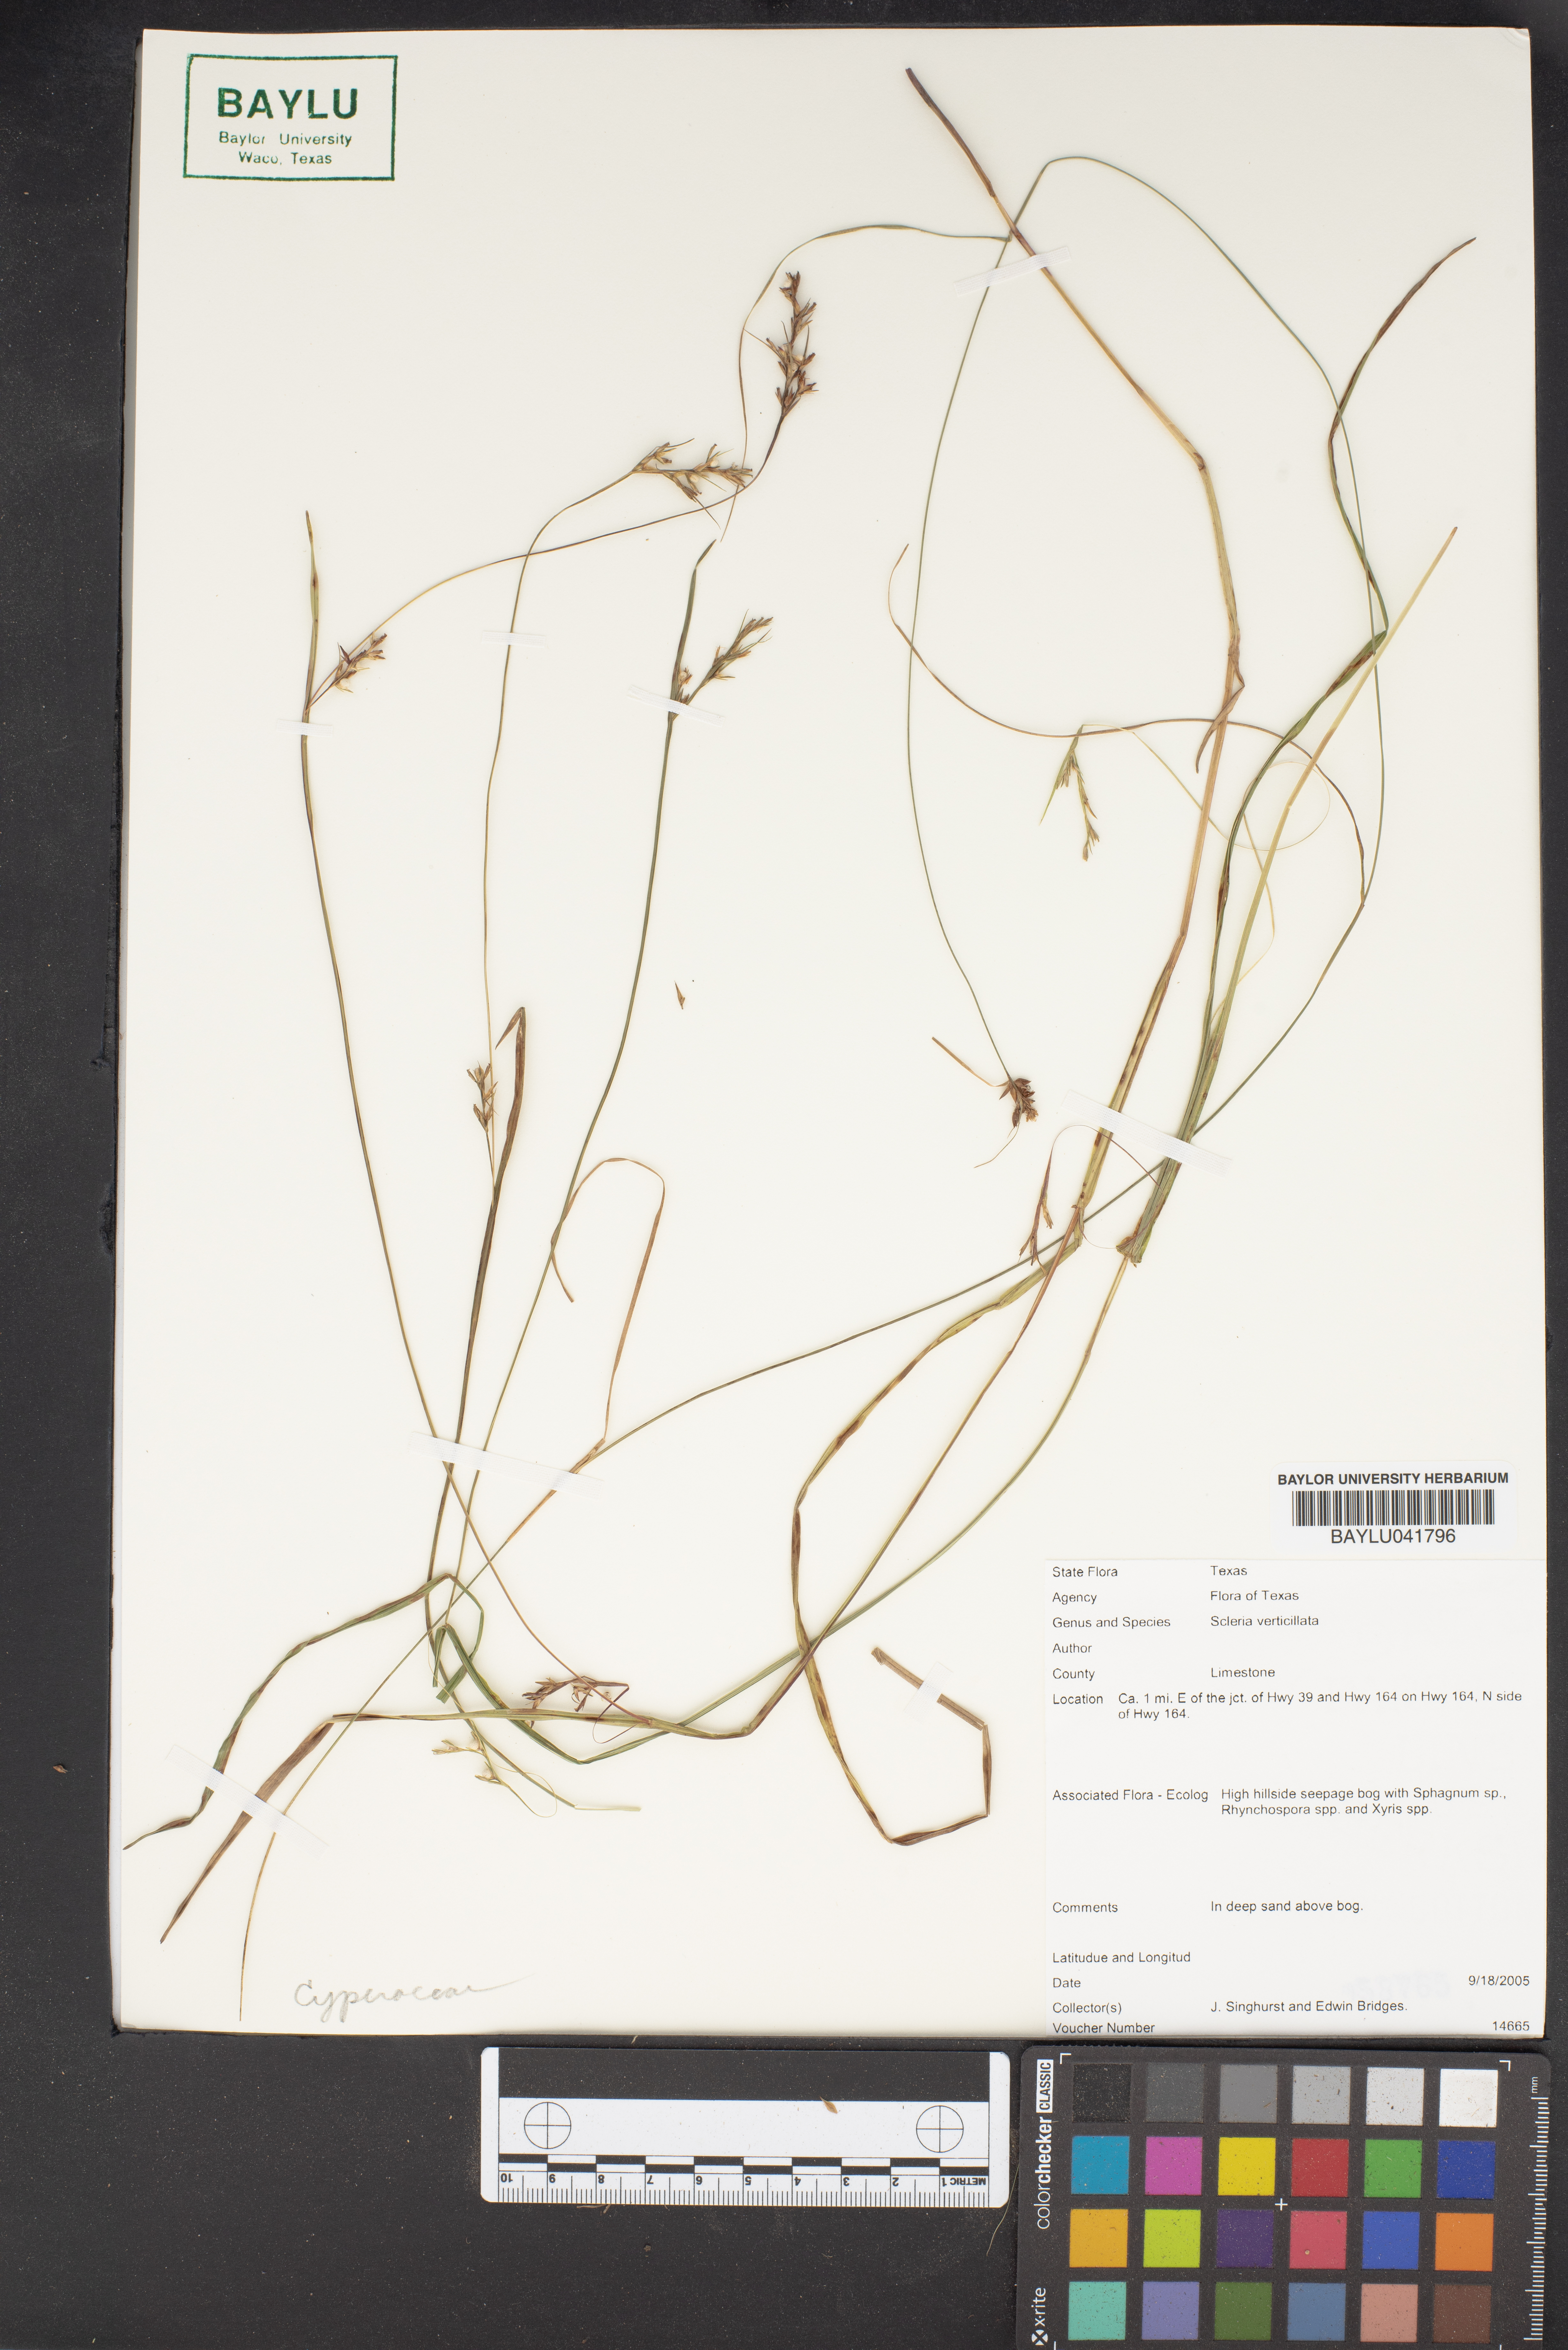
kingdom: Plantae
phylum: Tracheophyta
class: Liliopsida
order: Poales
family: Cyperaceae
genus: Scleria
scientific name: Scleria verticillata
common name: Low nutrush
